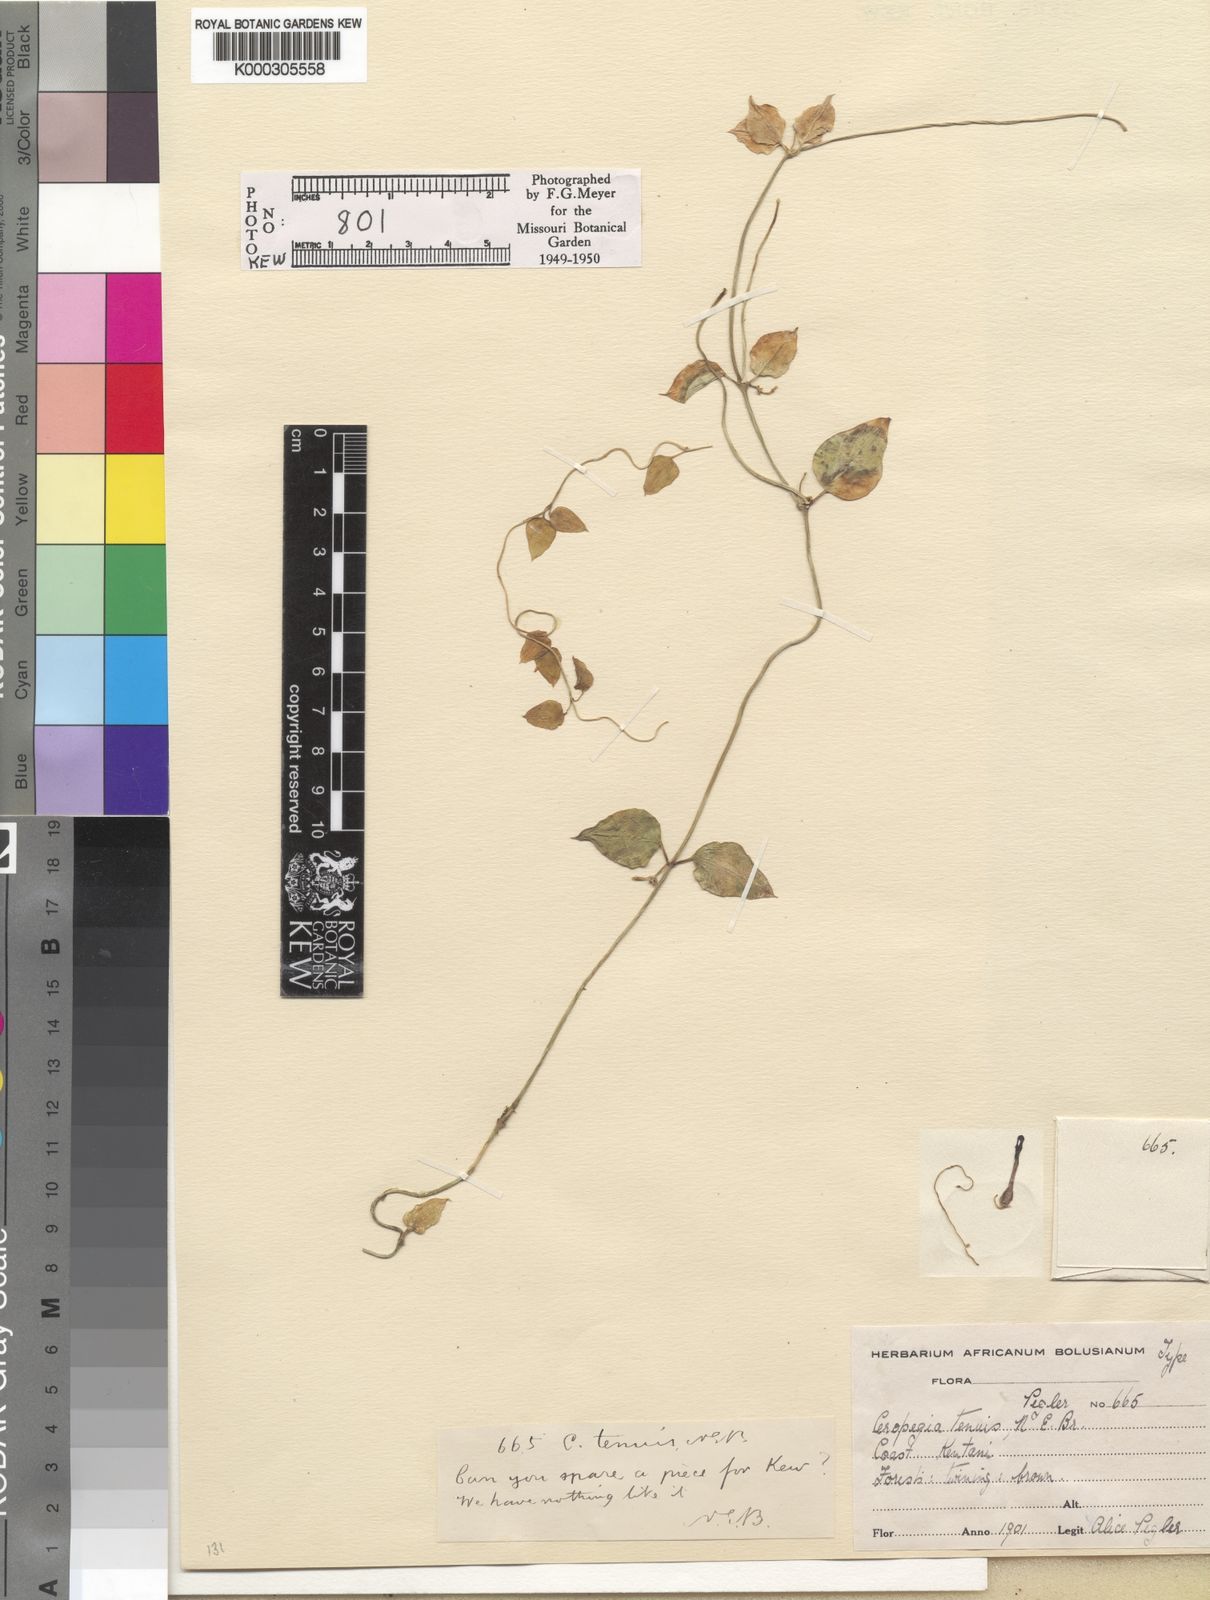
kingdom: Plantae
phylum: Tracheophyta
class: Magnoliopsida
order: Gentianales
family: Apocynaceae
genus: Ceropegia
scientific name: Ceropegia linearis
